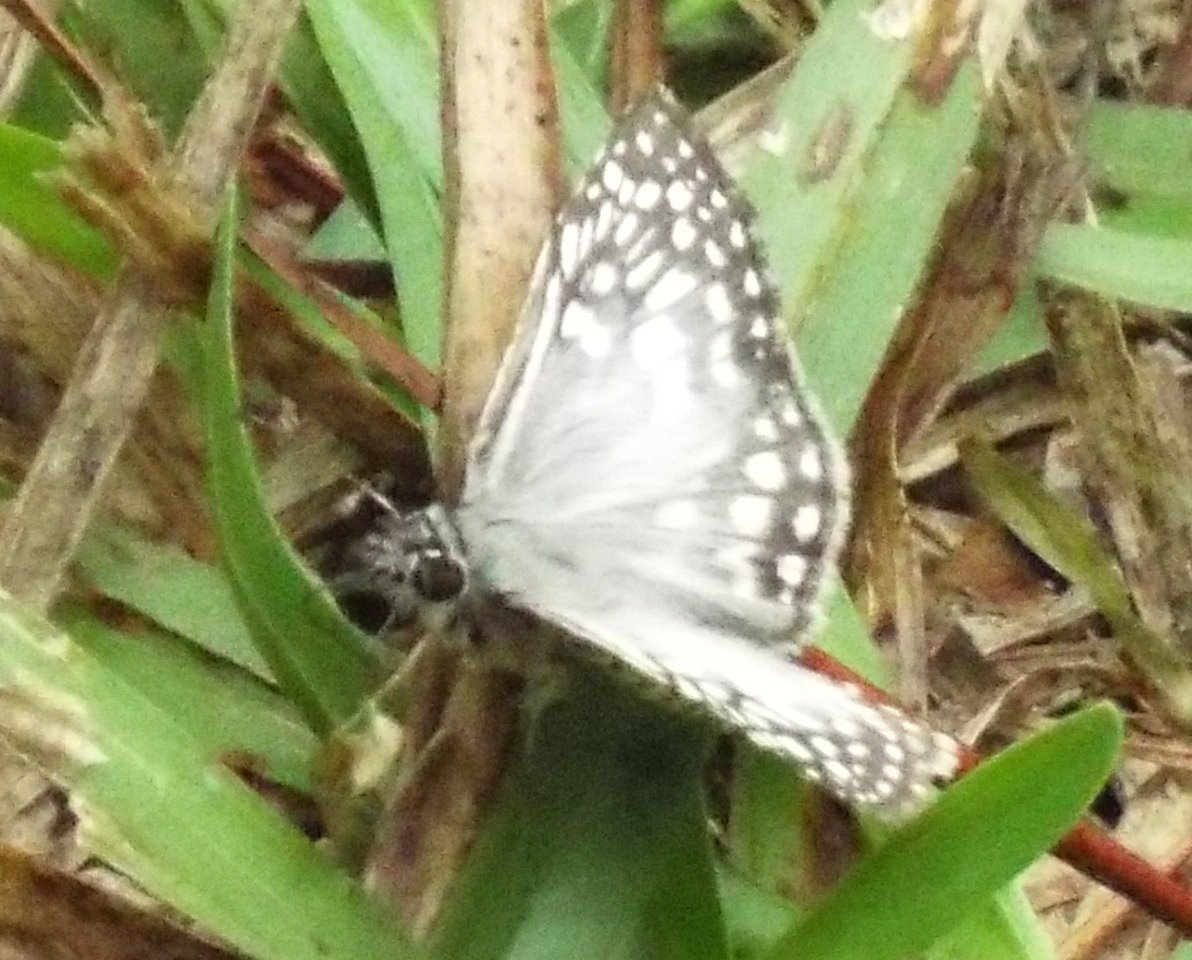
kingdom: Animalia
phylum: Arthropoda
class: Insecta
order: Lepidoptera
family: Hesperiidae
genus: Pyrgus
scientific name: Pyrgus oileus
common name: Tropical Checkered-Skipper
